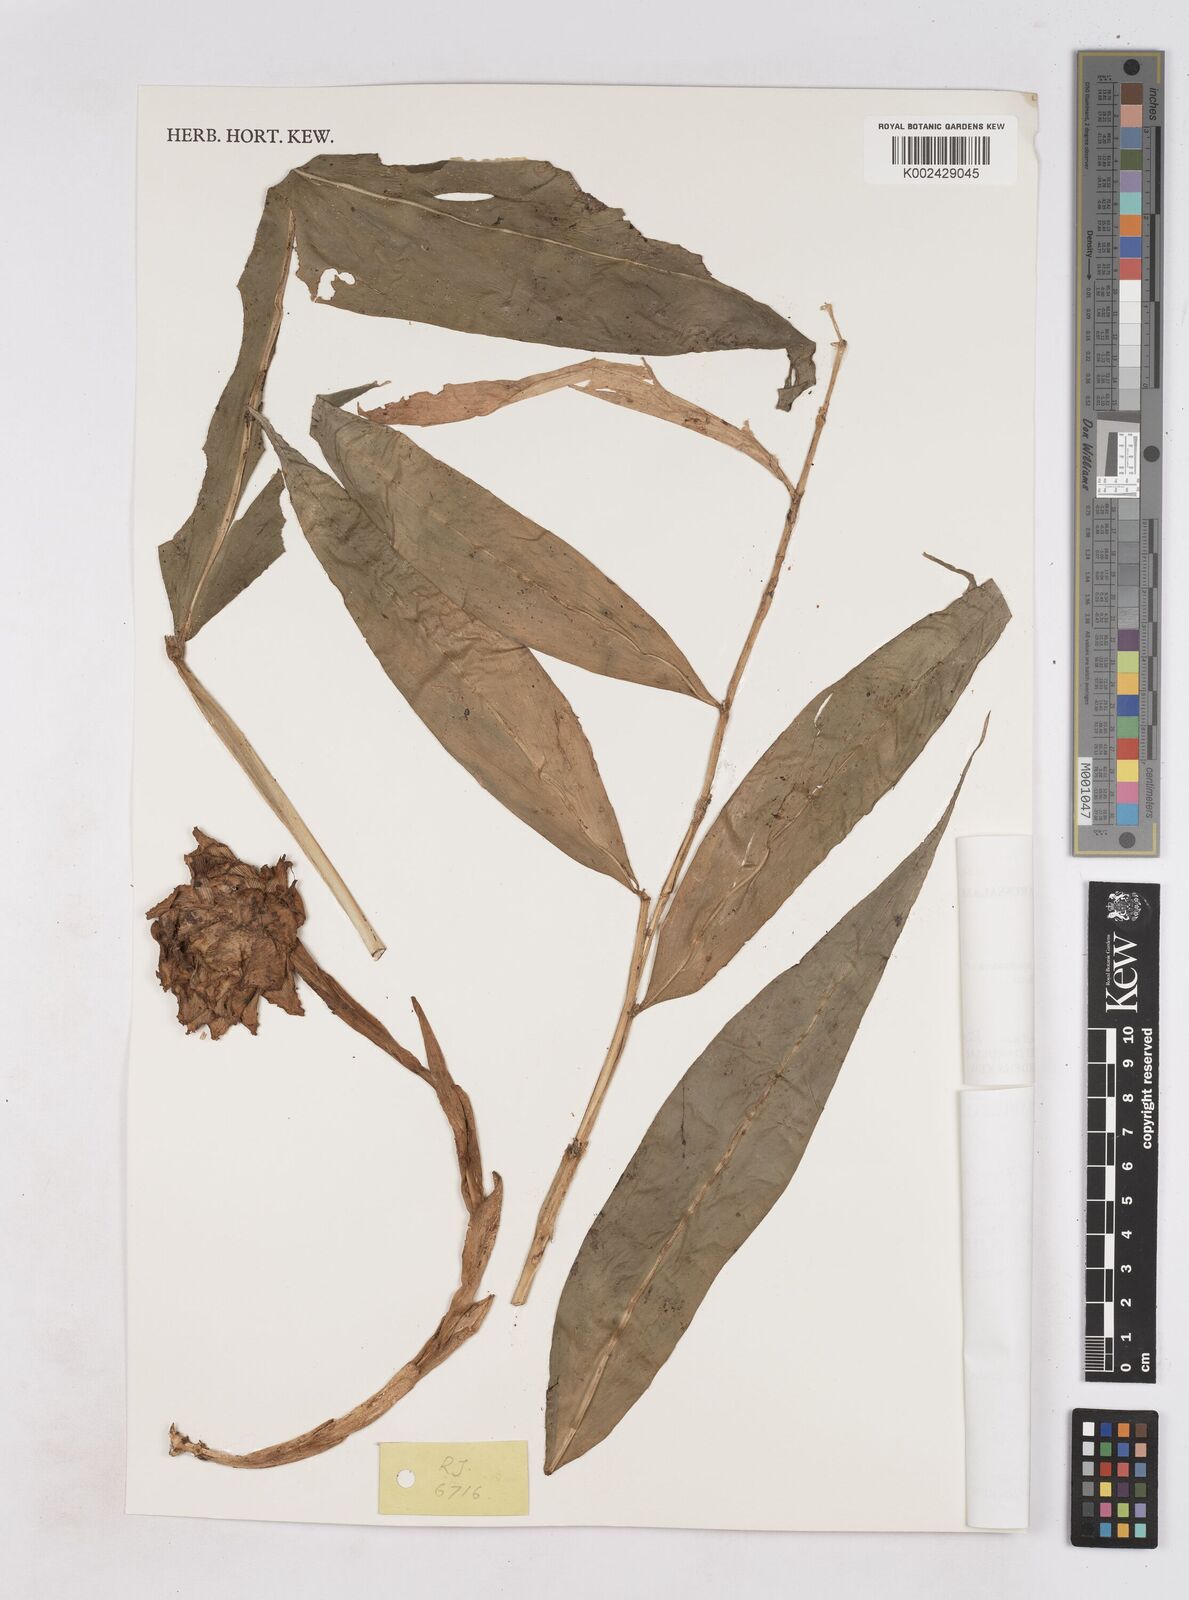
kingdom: Plantae
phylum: Tracheophyta
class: Liliopsida
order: Zingiberales
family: Zingiberaceae
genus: Zingiber
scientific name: Zingiber longipedunculatum
